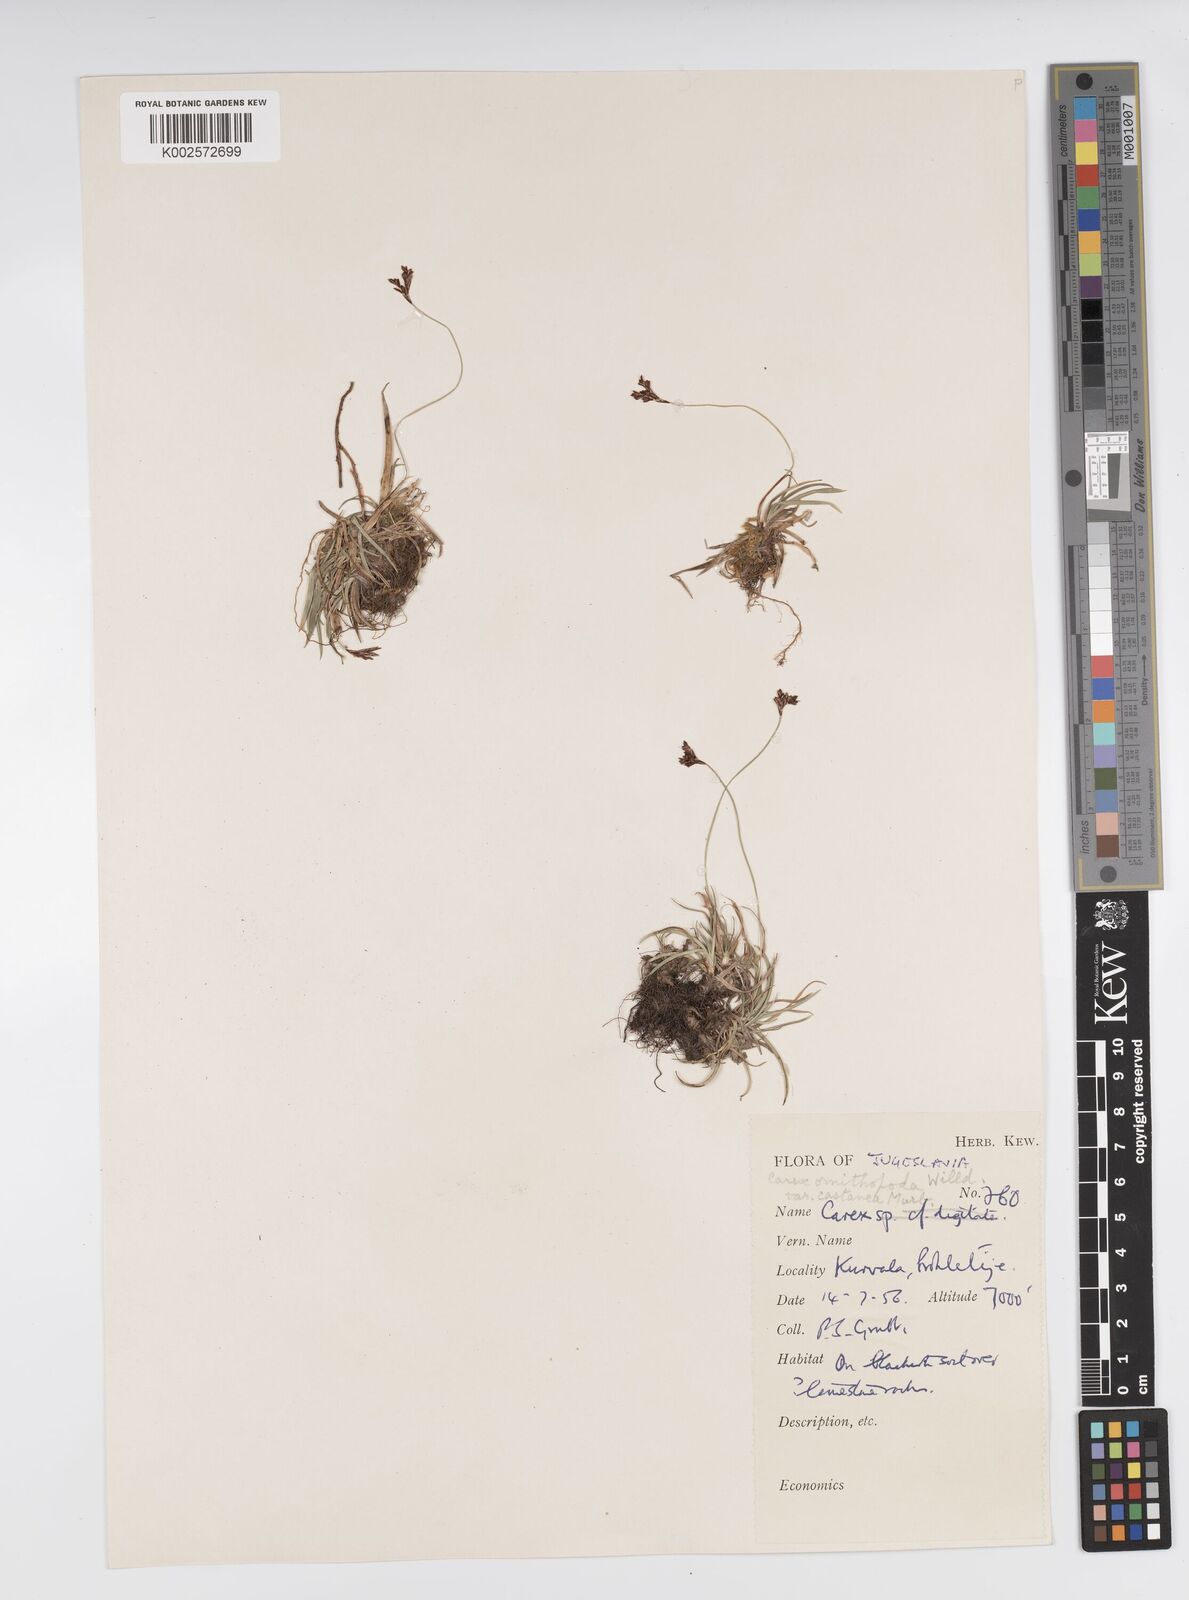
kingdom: Plantae
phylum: Tracheophyta
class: Liliopsida
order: Poales
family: Cyperaceae
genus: Carex
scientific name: Carex ornithopoda
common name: Bird's-foot sedge
